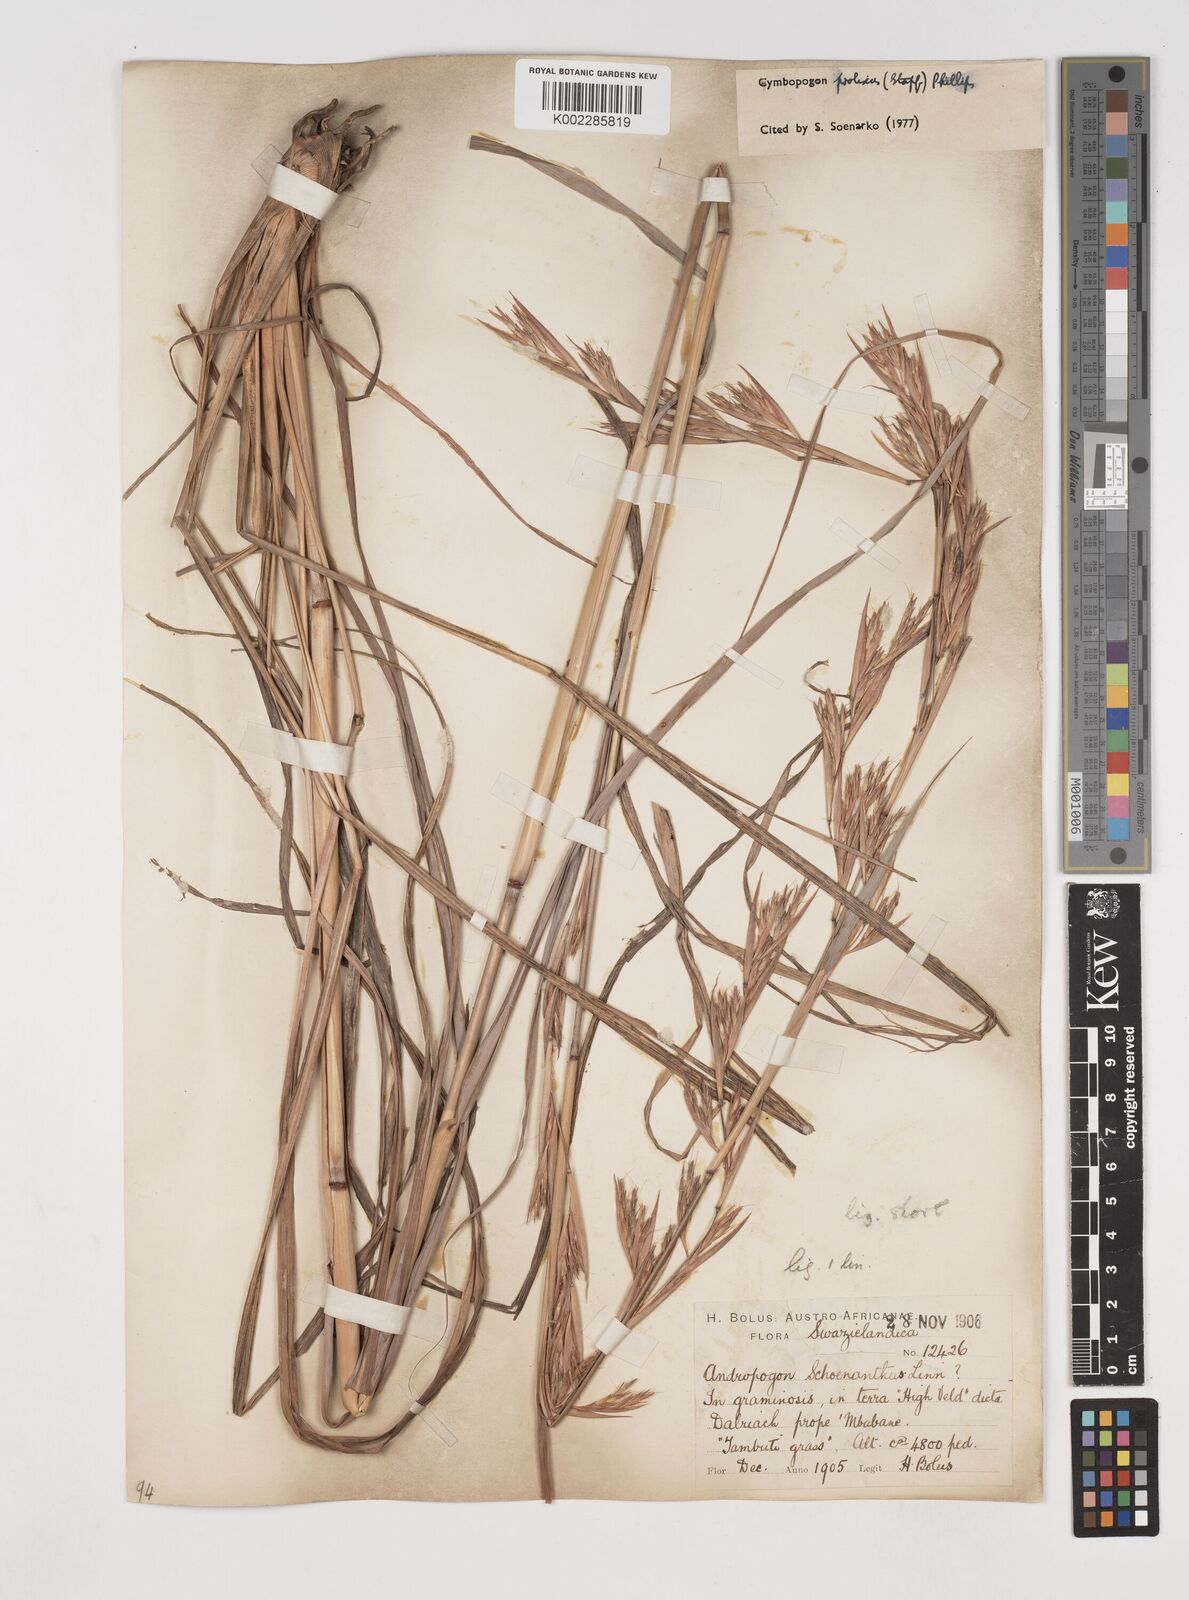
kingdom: Plantae
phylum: Tracheophyta
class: Liliopsida
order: Poales
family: Poaceae
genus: Cymbopogon
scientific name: Cymbopogon nardus
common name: Giant turpentine grass
